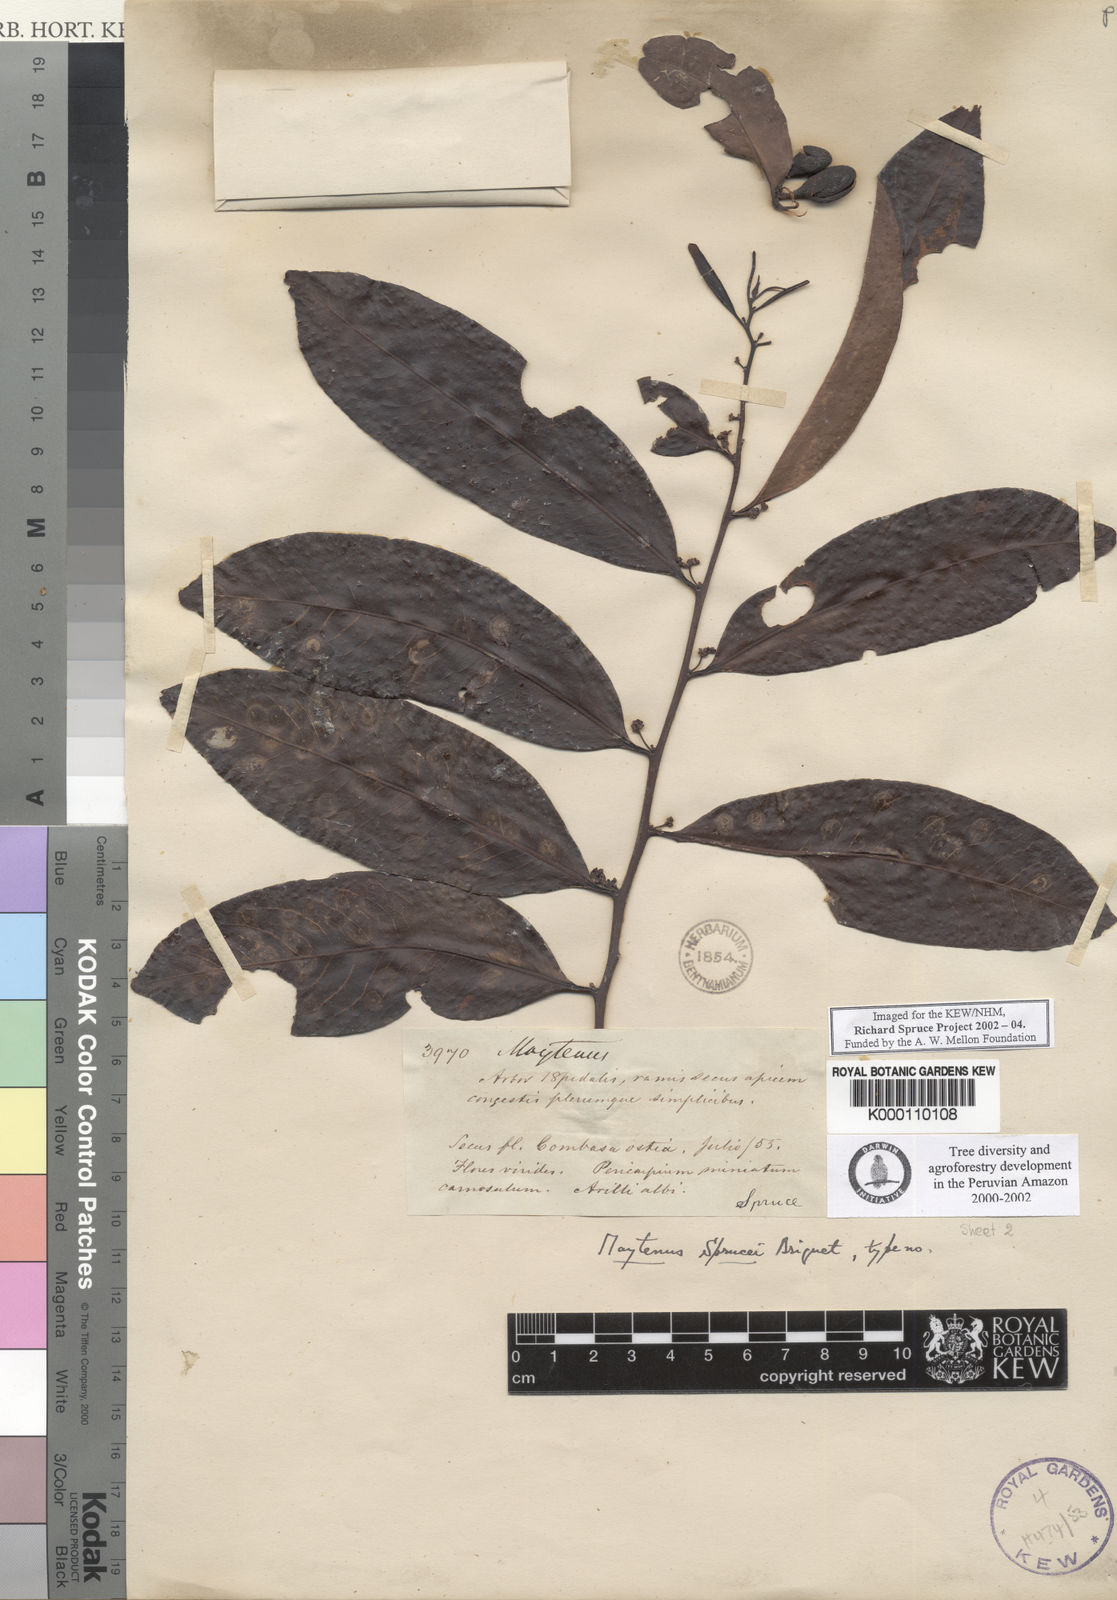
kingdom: Plantae
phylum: Tracheophyta
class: Magnoliopsida
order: Celastrales
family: Celastraceae
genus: Monteverdia
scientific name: Monteverdia sprucei
